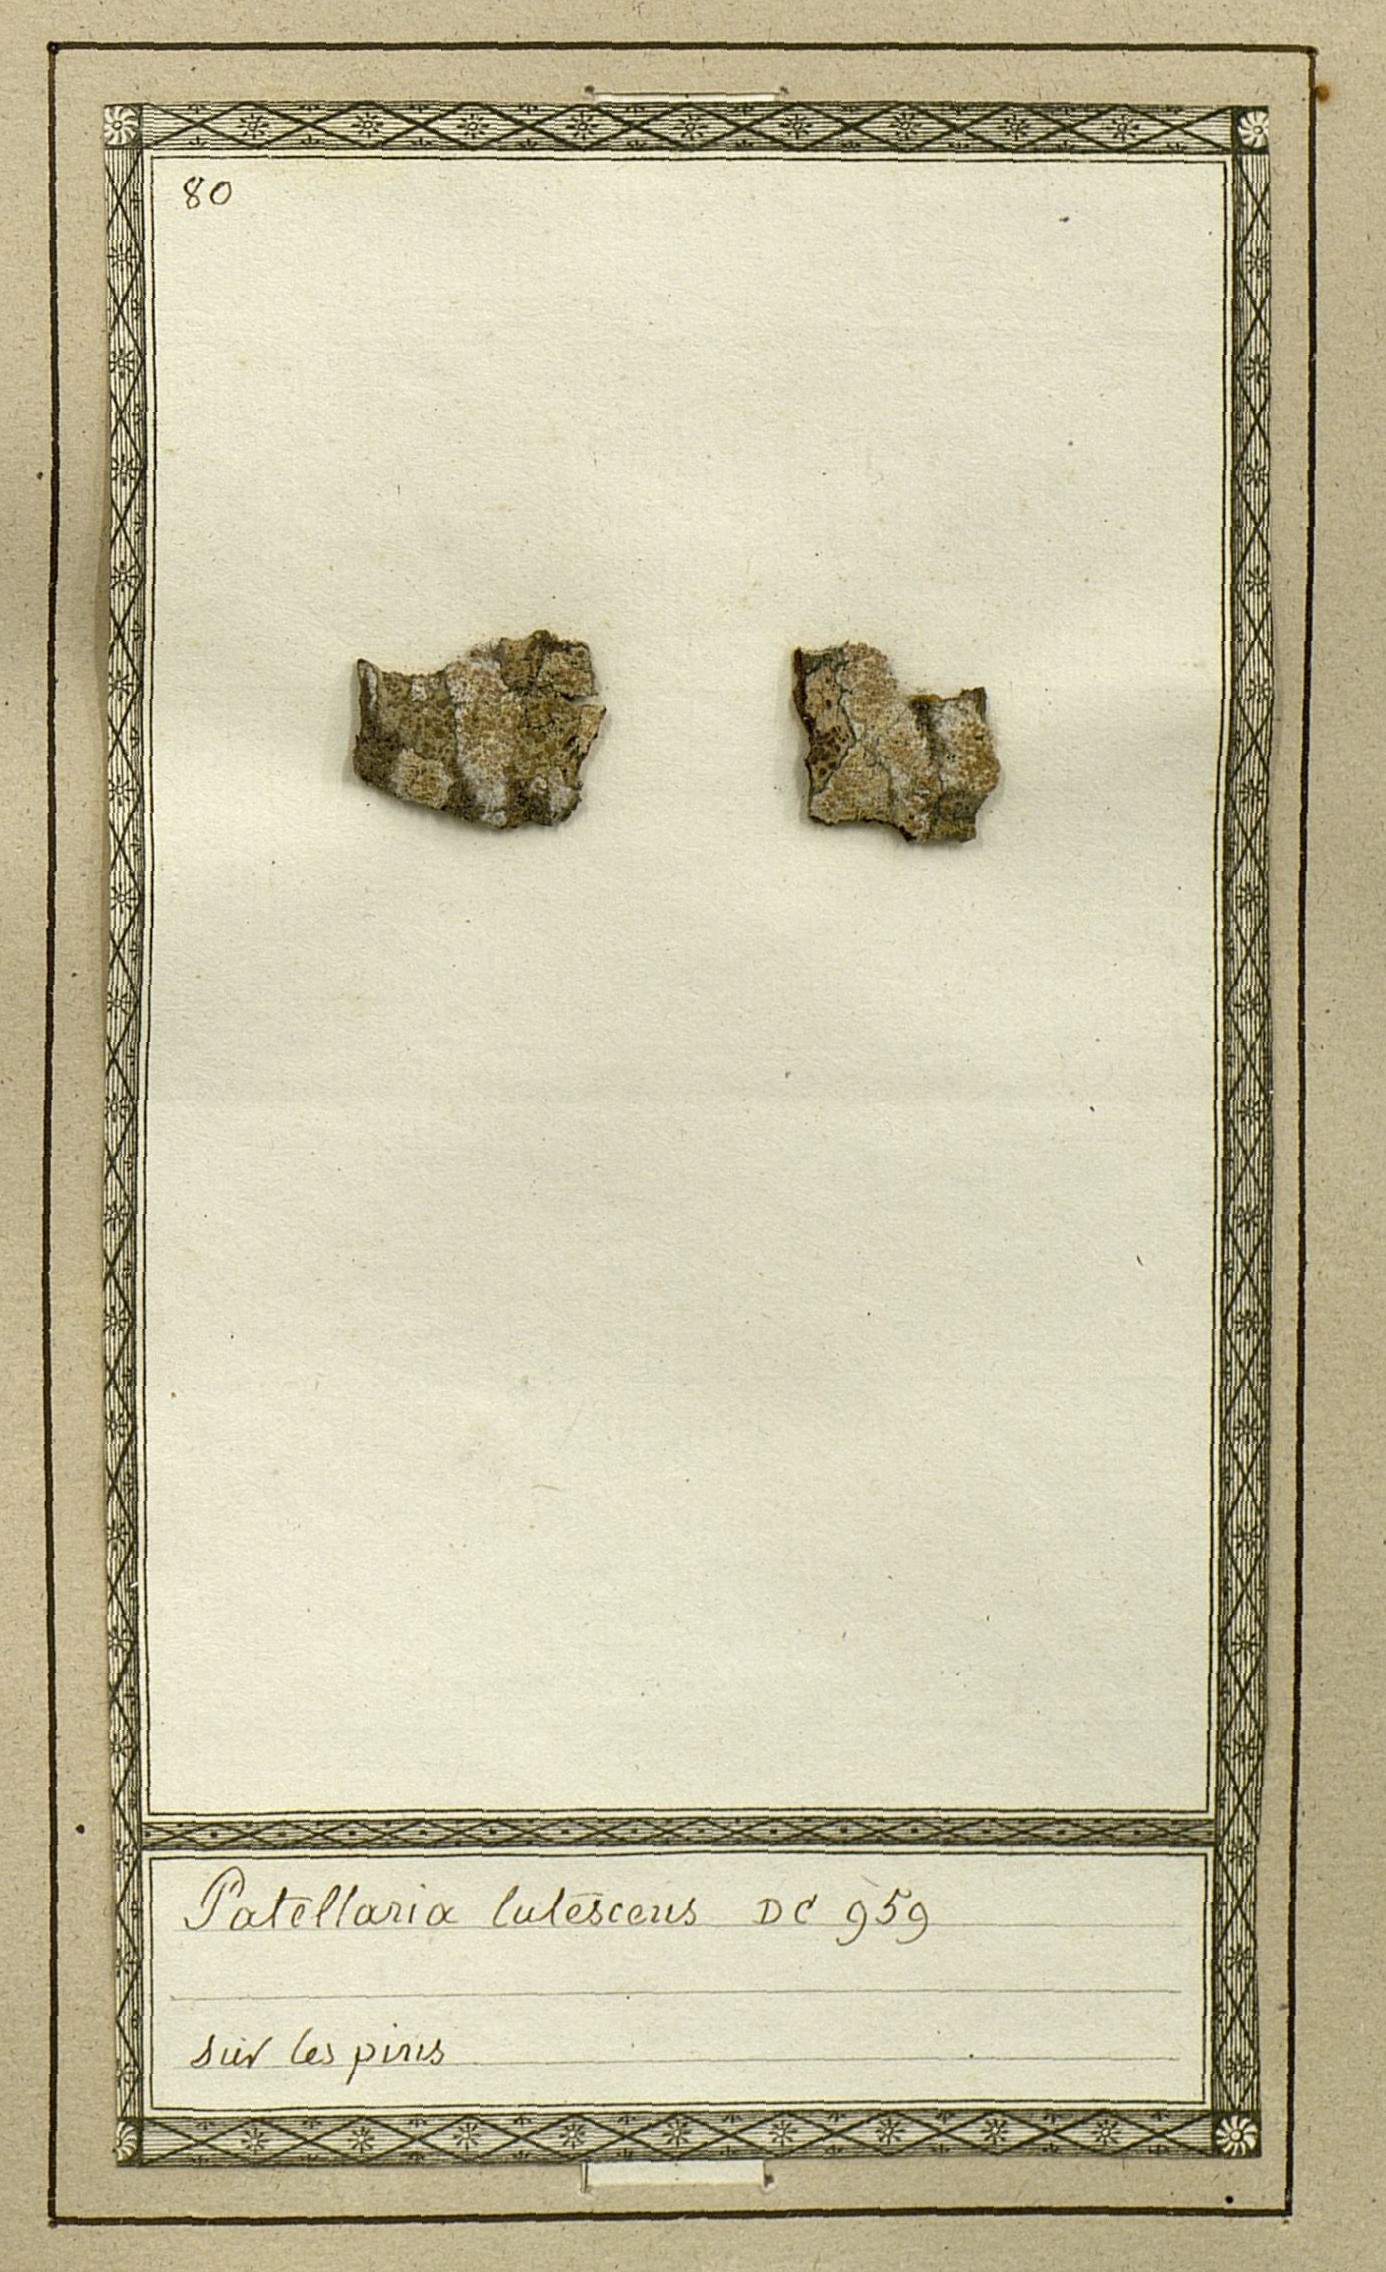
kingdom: Fungi
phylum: Ascomycota
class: Lecanoromycetes
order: Lecanorales
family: Lecanoraceae
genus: Lecanora
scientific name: Lecanora farinaria
